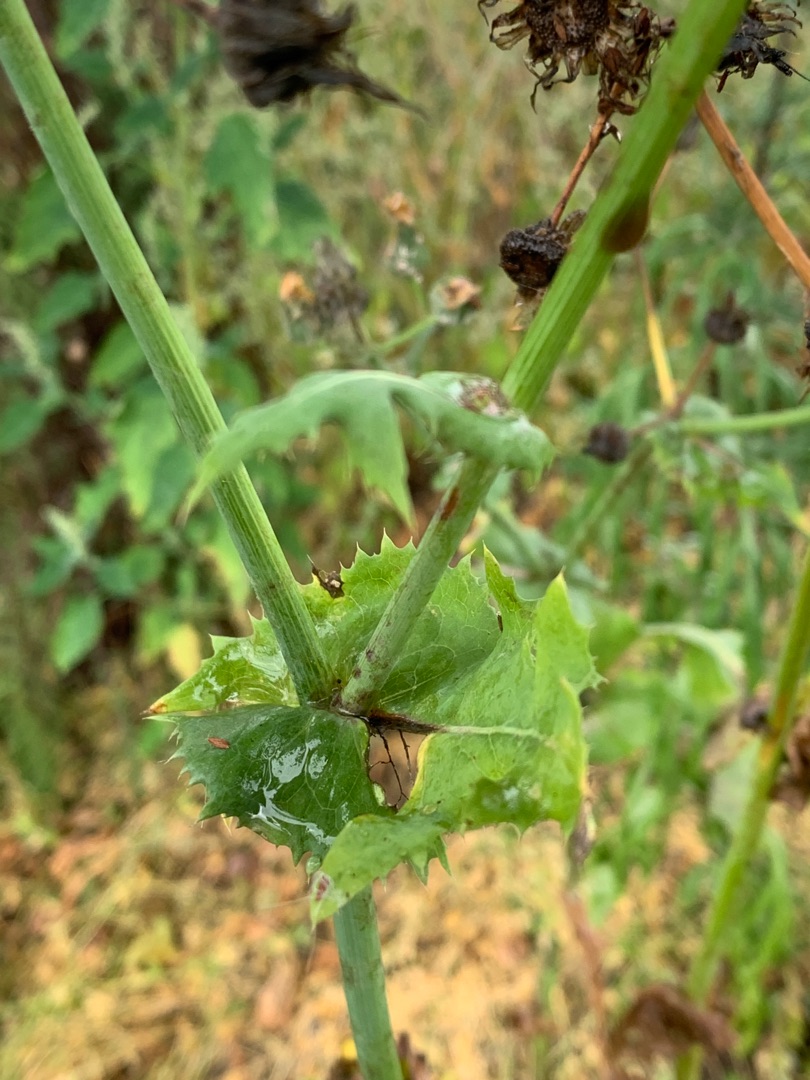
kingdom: Plantae
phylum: Tracheophyta
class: Magnoliopsida
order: Asterales
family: Asteraceae
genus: Sonchus
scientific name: Sonchus oleraceus
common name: Almindelig svinemælk
